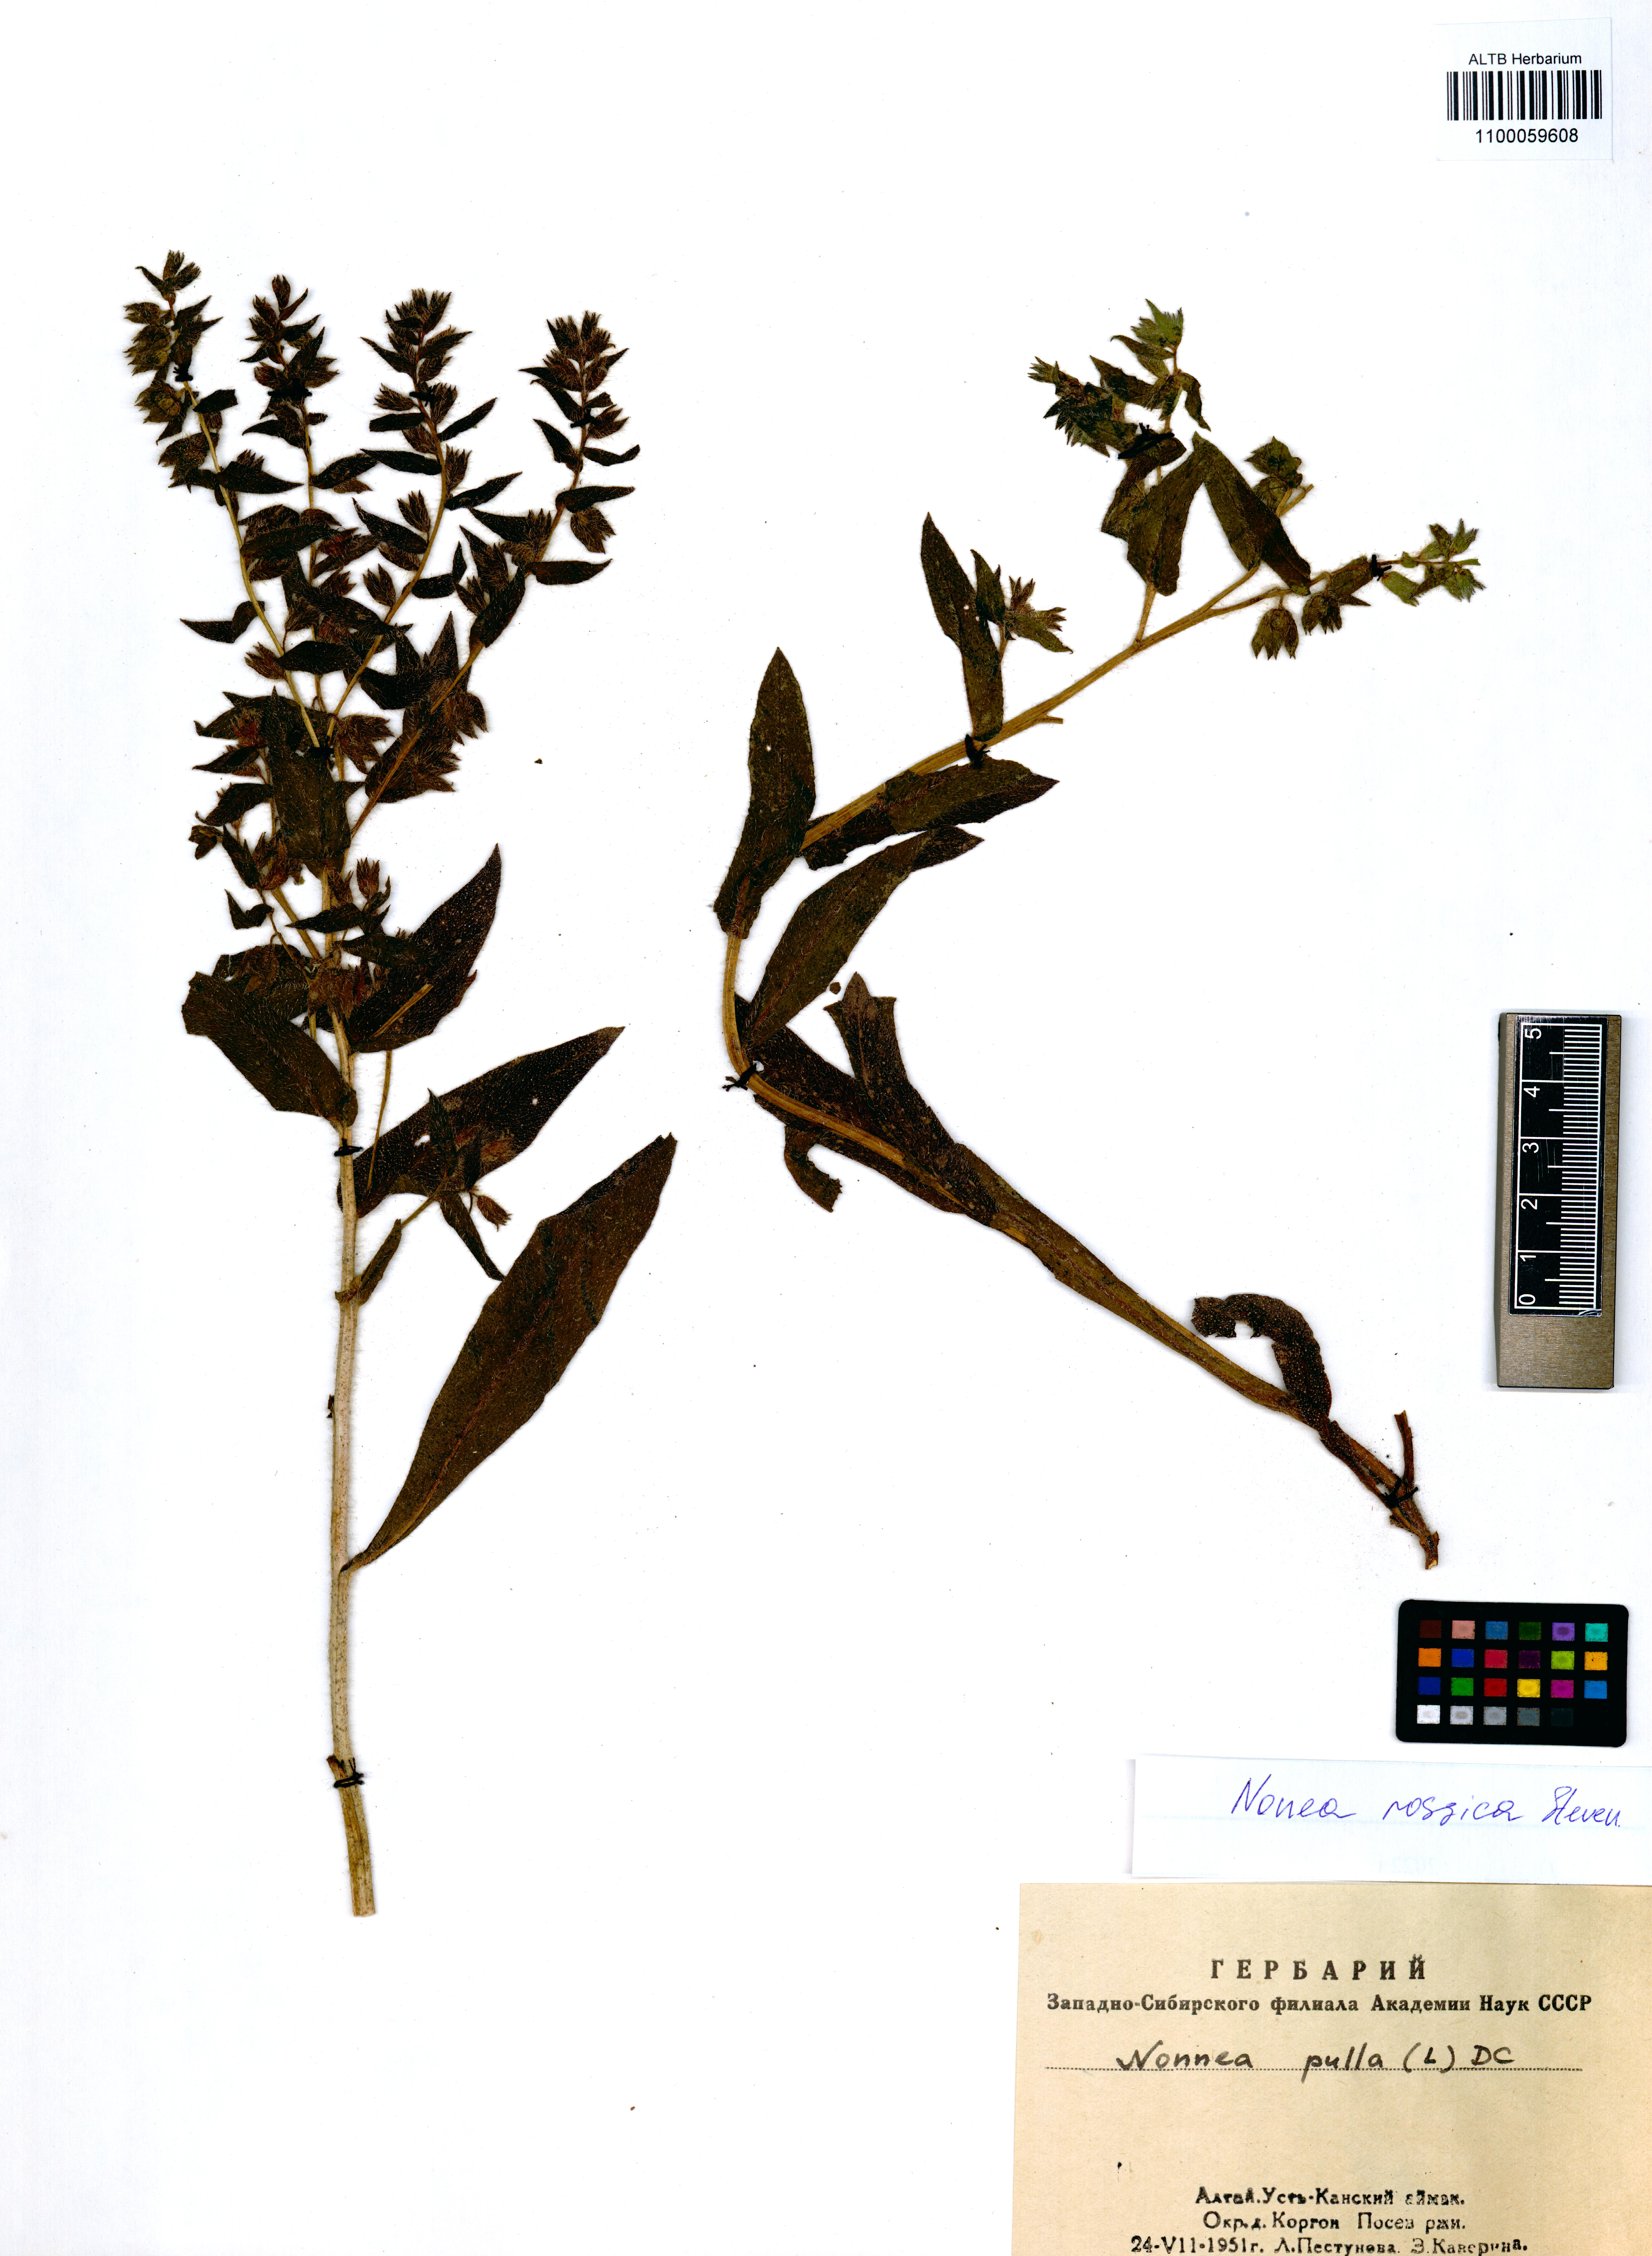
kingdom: Plantae
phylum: Tracheophyta
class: Magnoliopsida
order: Boraginales
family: Boraginaceae
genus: Nonea
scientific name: Nonea pulla
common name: Brown nonea
